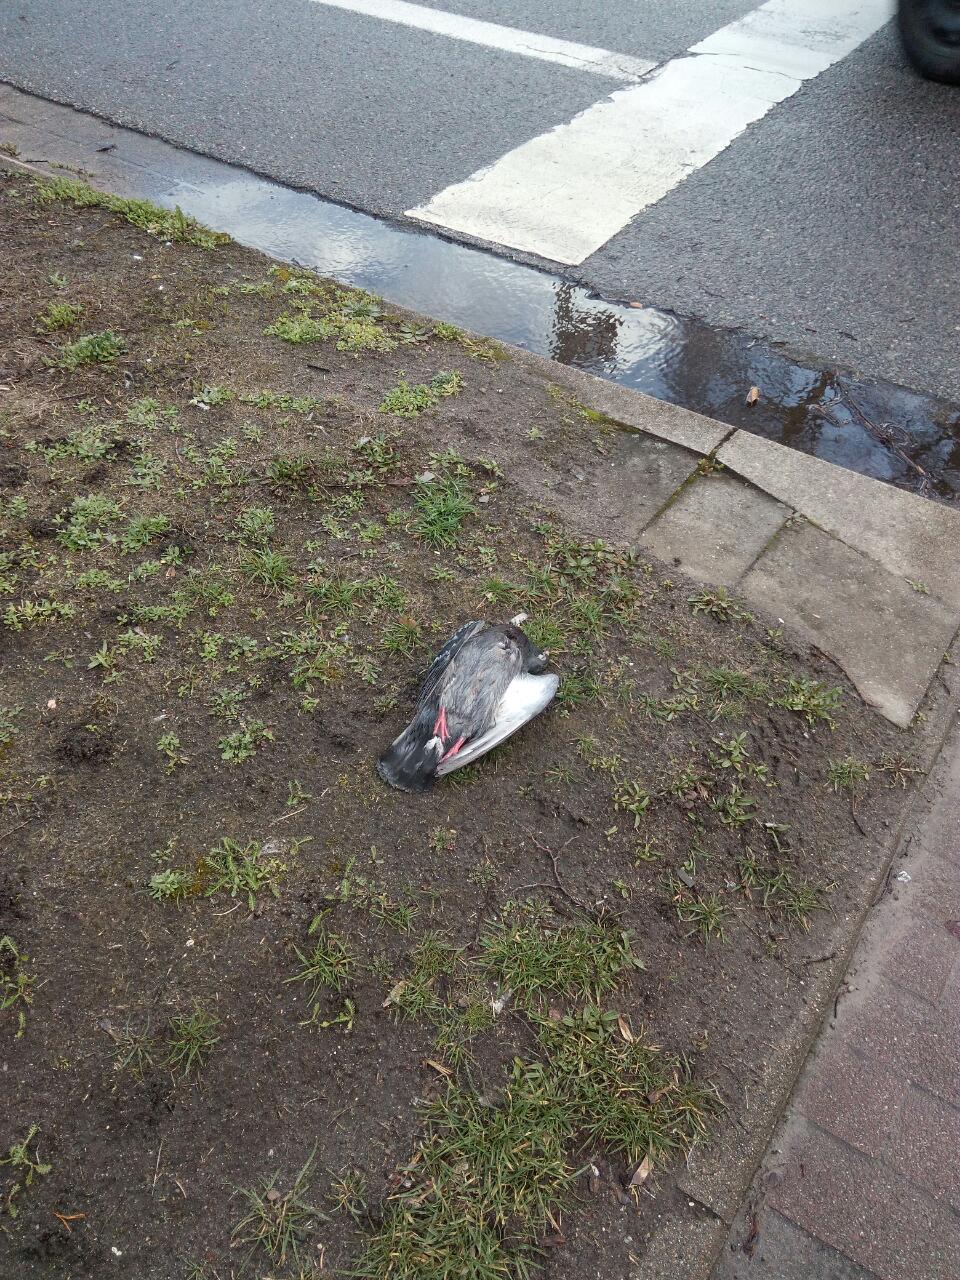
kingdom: Animalia
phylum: Chordata
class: Aves
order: Columbiformes
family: Columbidae
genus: Columba
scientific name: Columba livia
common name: Rock pigeon
